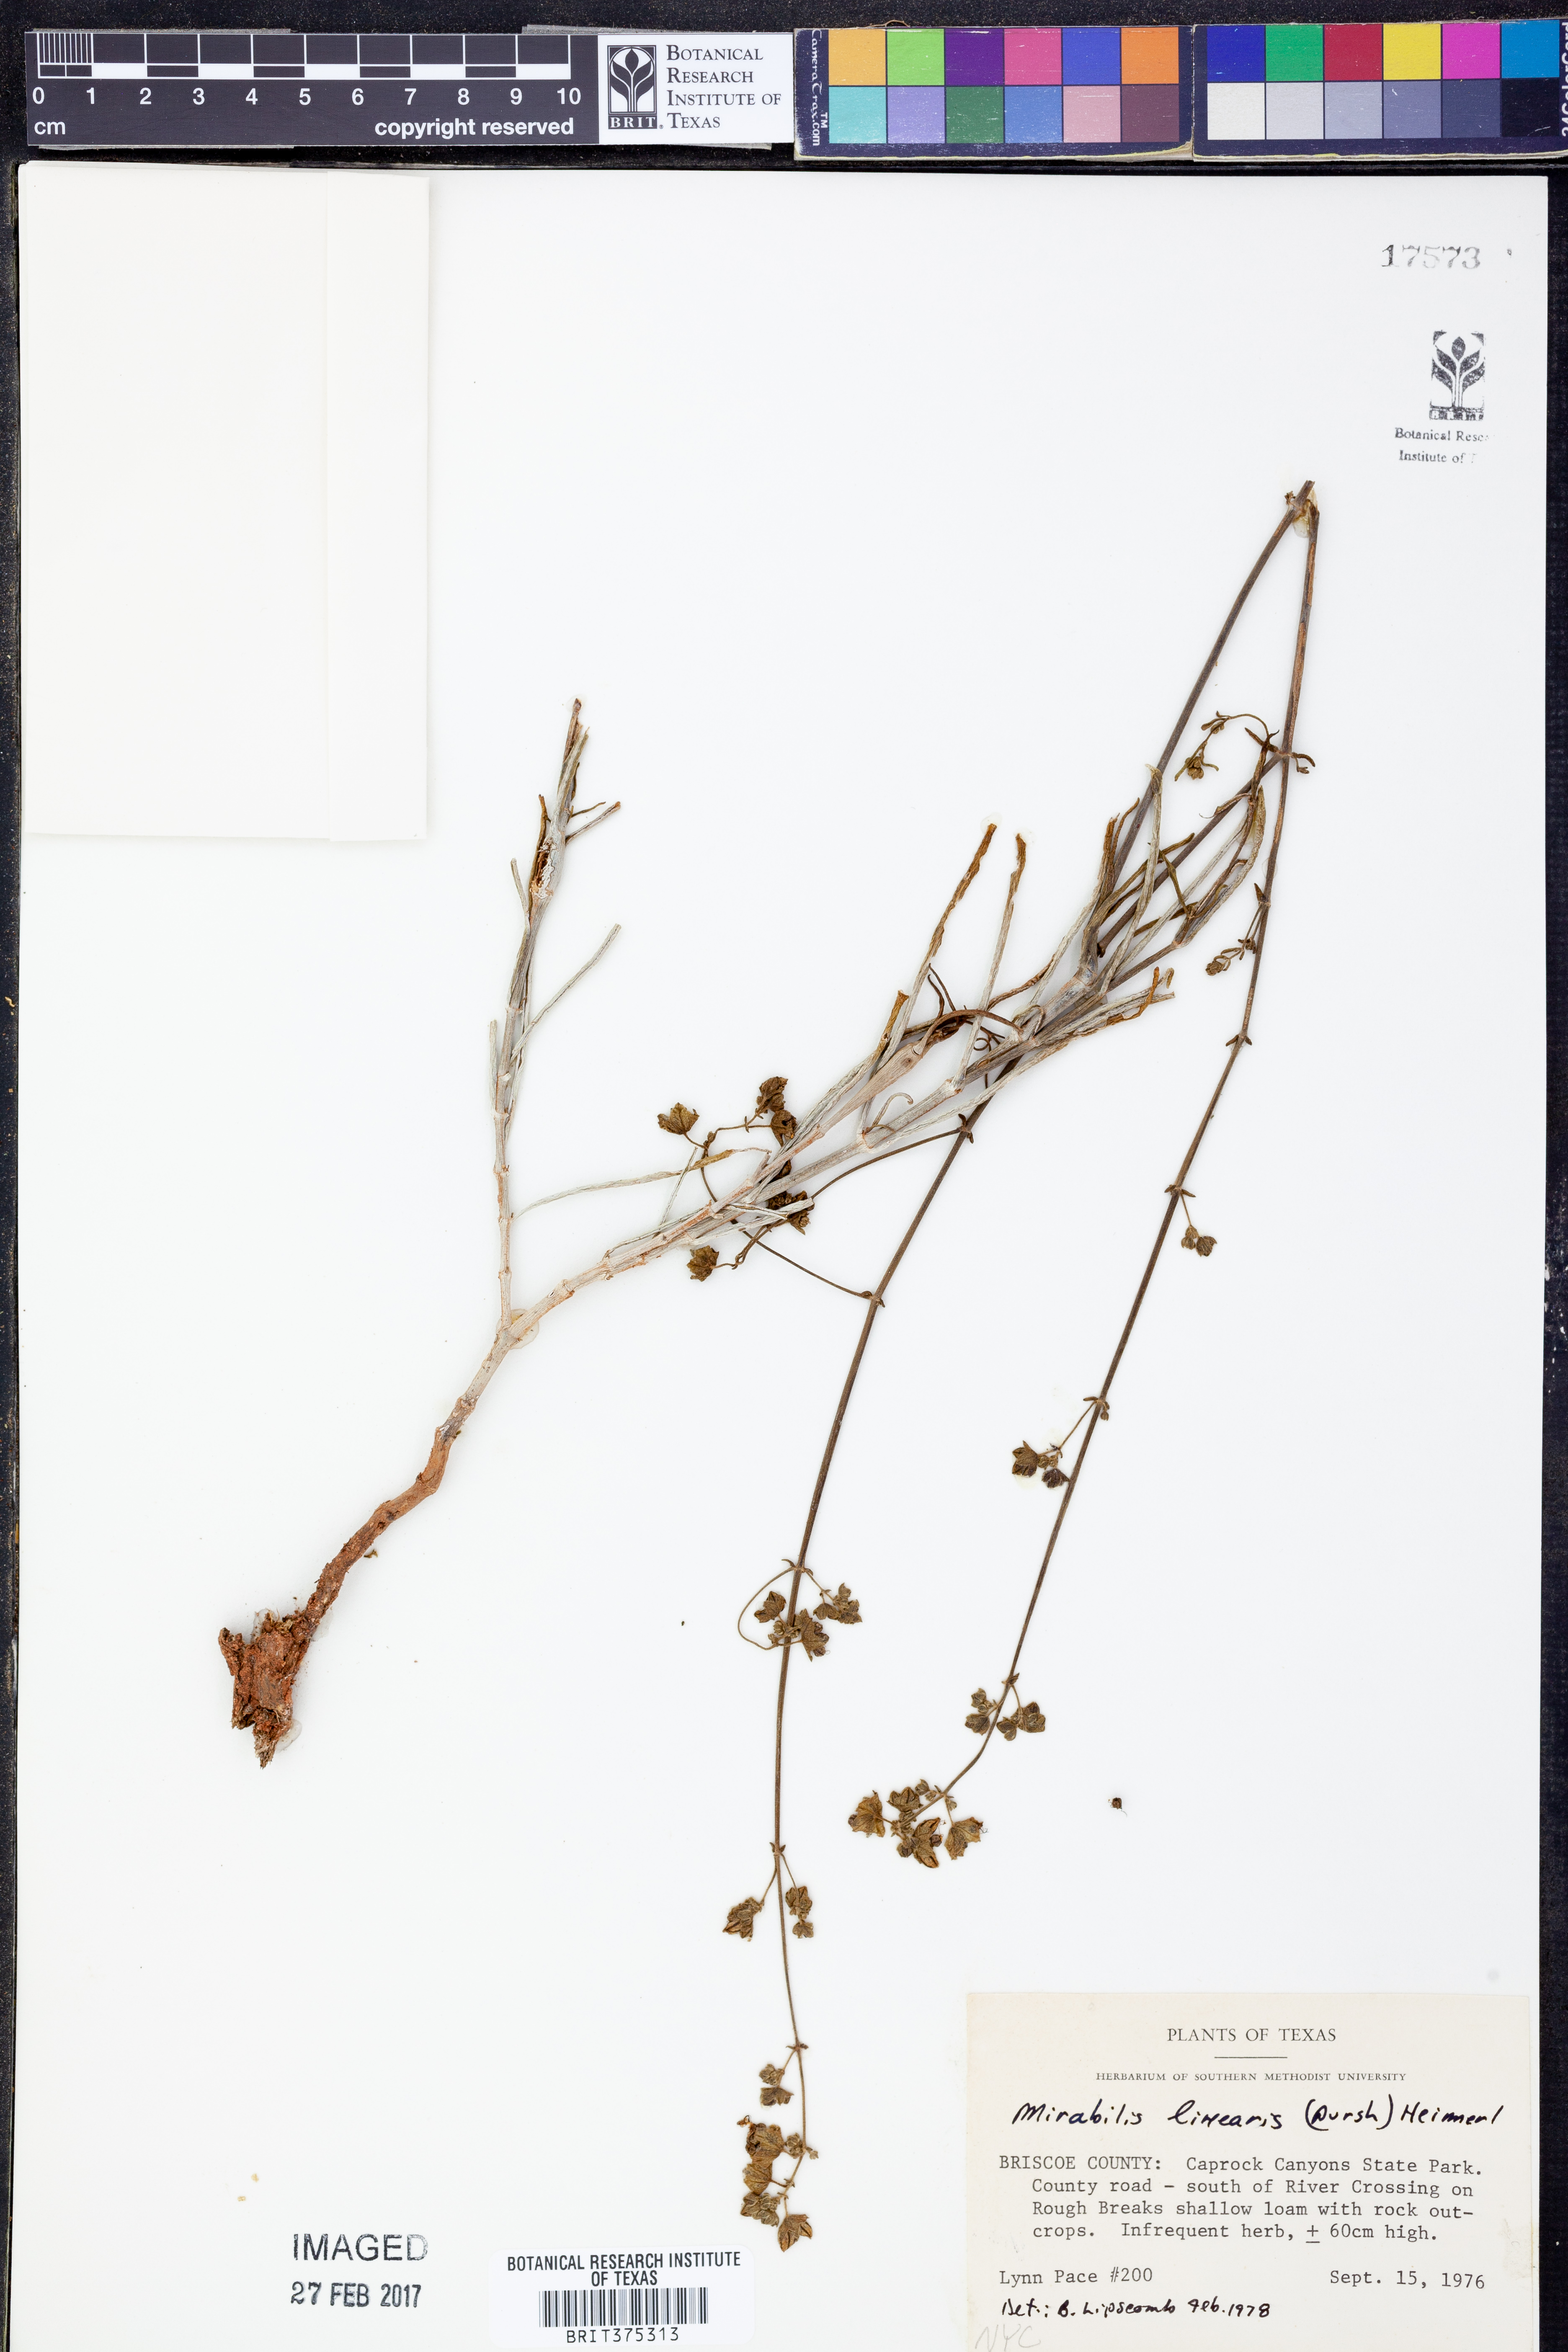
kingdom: Plantae
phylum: Tracheophyta
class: Magnoliopsida
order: Caryophyllales
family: Nyctaginaceae
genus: Mirabilis
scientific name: Mirabilis linearis
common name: Linear-leaved four-o'clock
